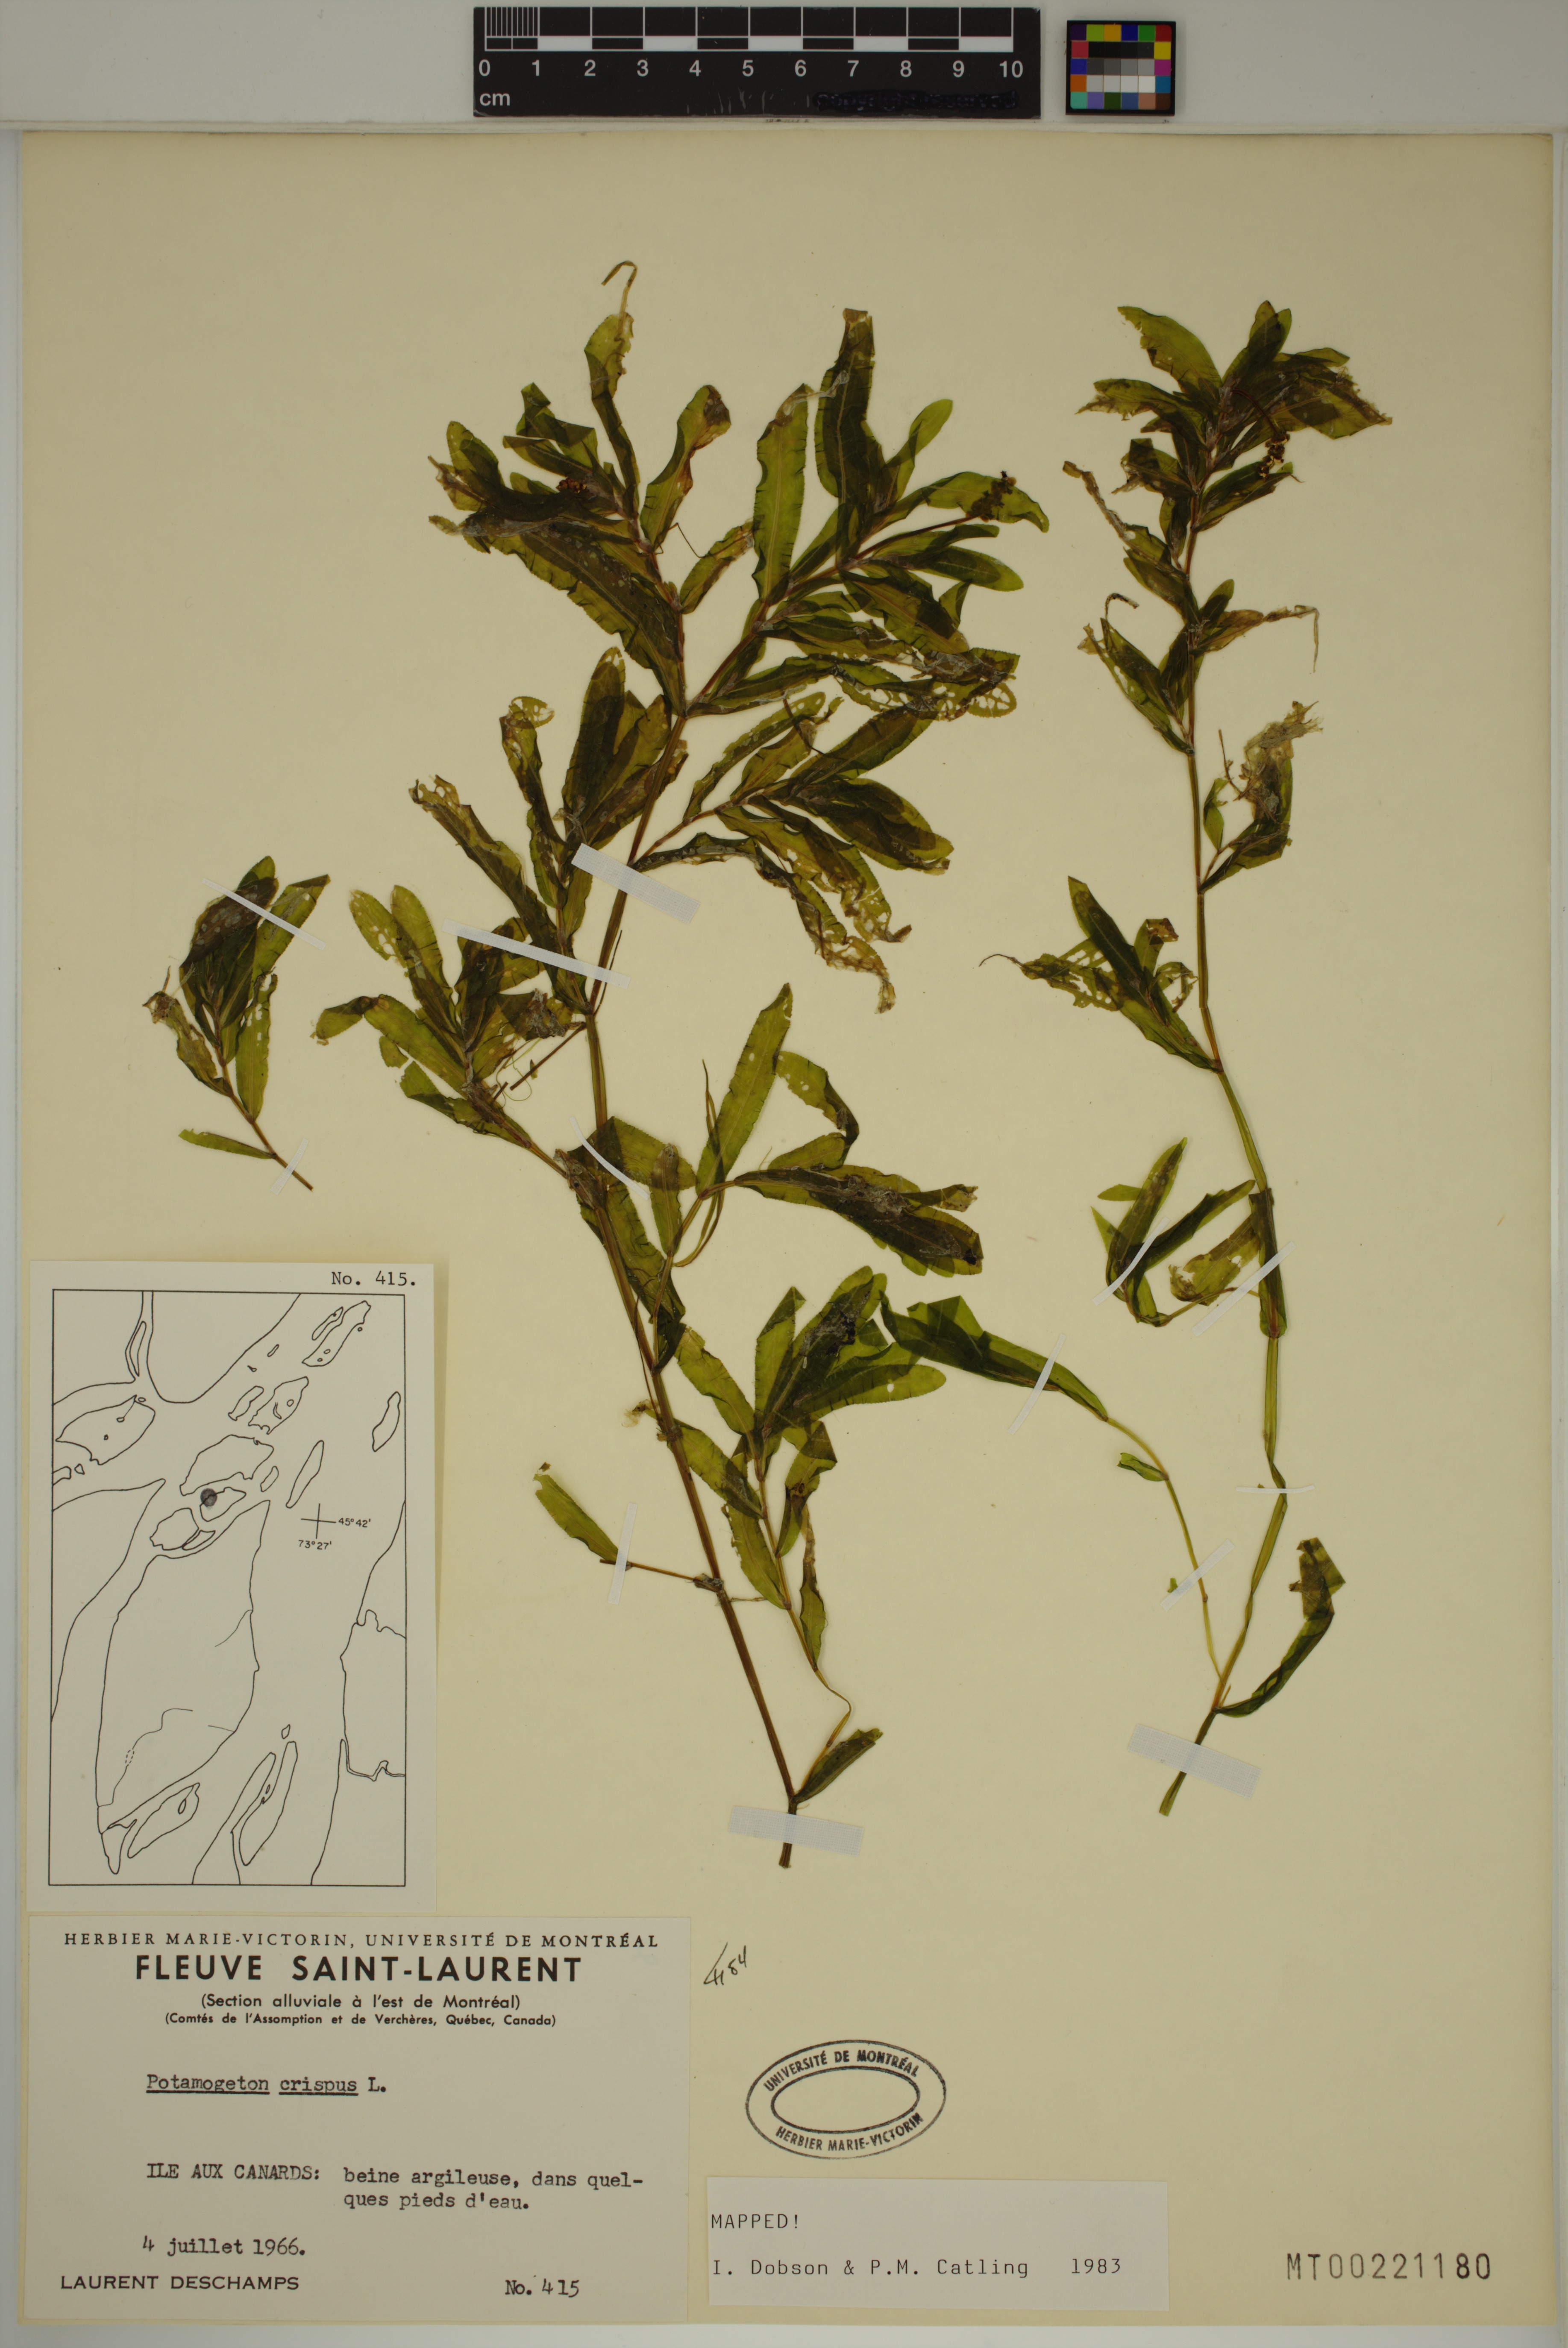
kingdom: Plantae
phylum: Tracheophyta
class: Liliopsida
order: Alismatales
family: Potamogetonaceae
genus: Potamogeton
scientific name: Potamogeton crispus
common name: Curled pondweed
